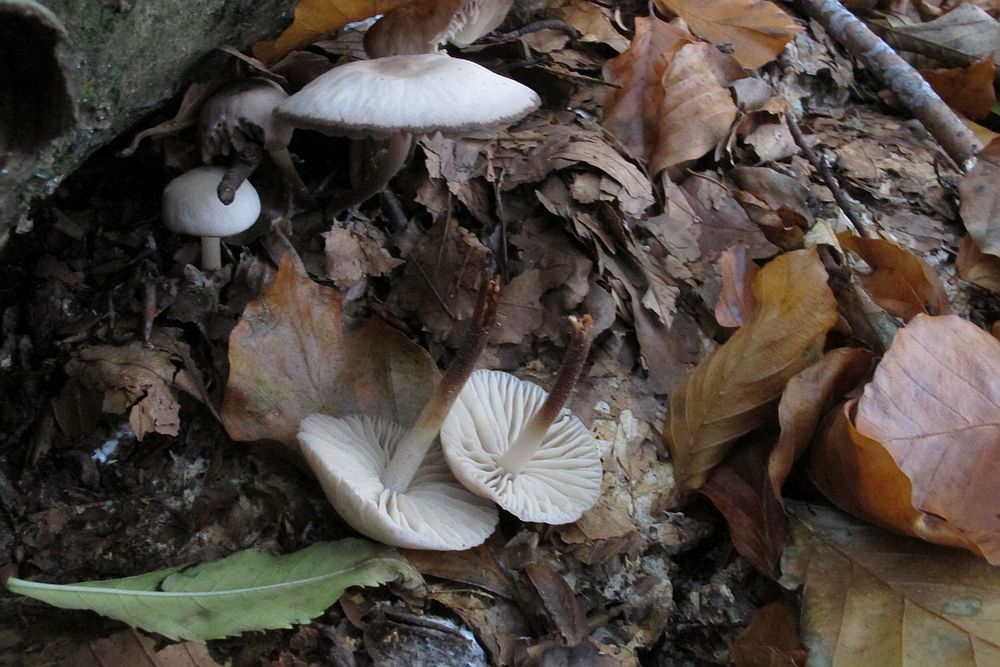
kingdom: Fungi
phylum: Basidiomycota
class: Agaricomycetes
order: Agaricales
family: Marasmiaceae
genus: Marasmius
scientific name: Marasmius wynneae
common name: hvælvet bruskhat
